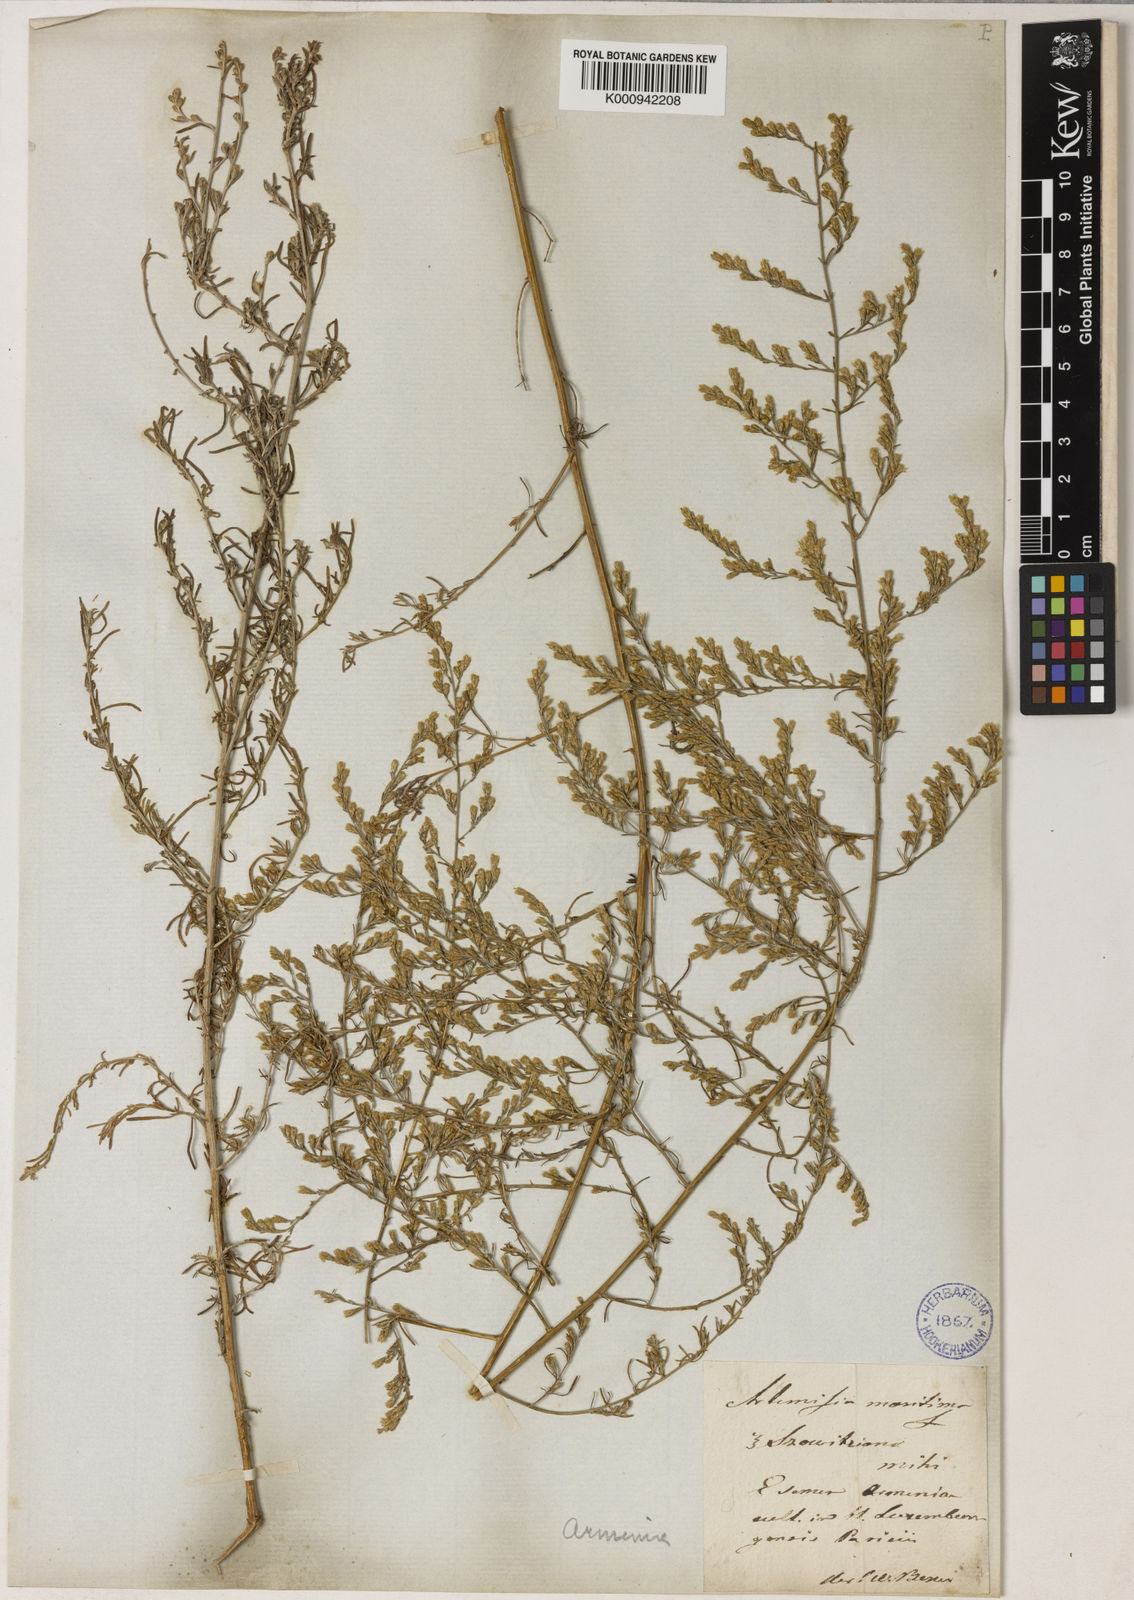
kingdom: Plantae
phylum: Tracheophyta
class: Magnoliopsida
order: Asterales
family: Asteraceae
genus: Artemisia
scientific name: Artemisia fragrans
